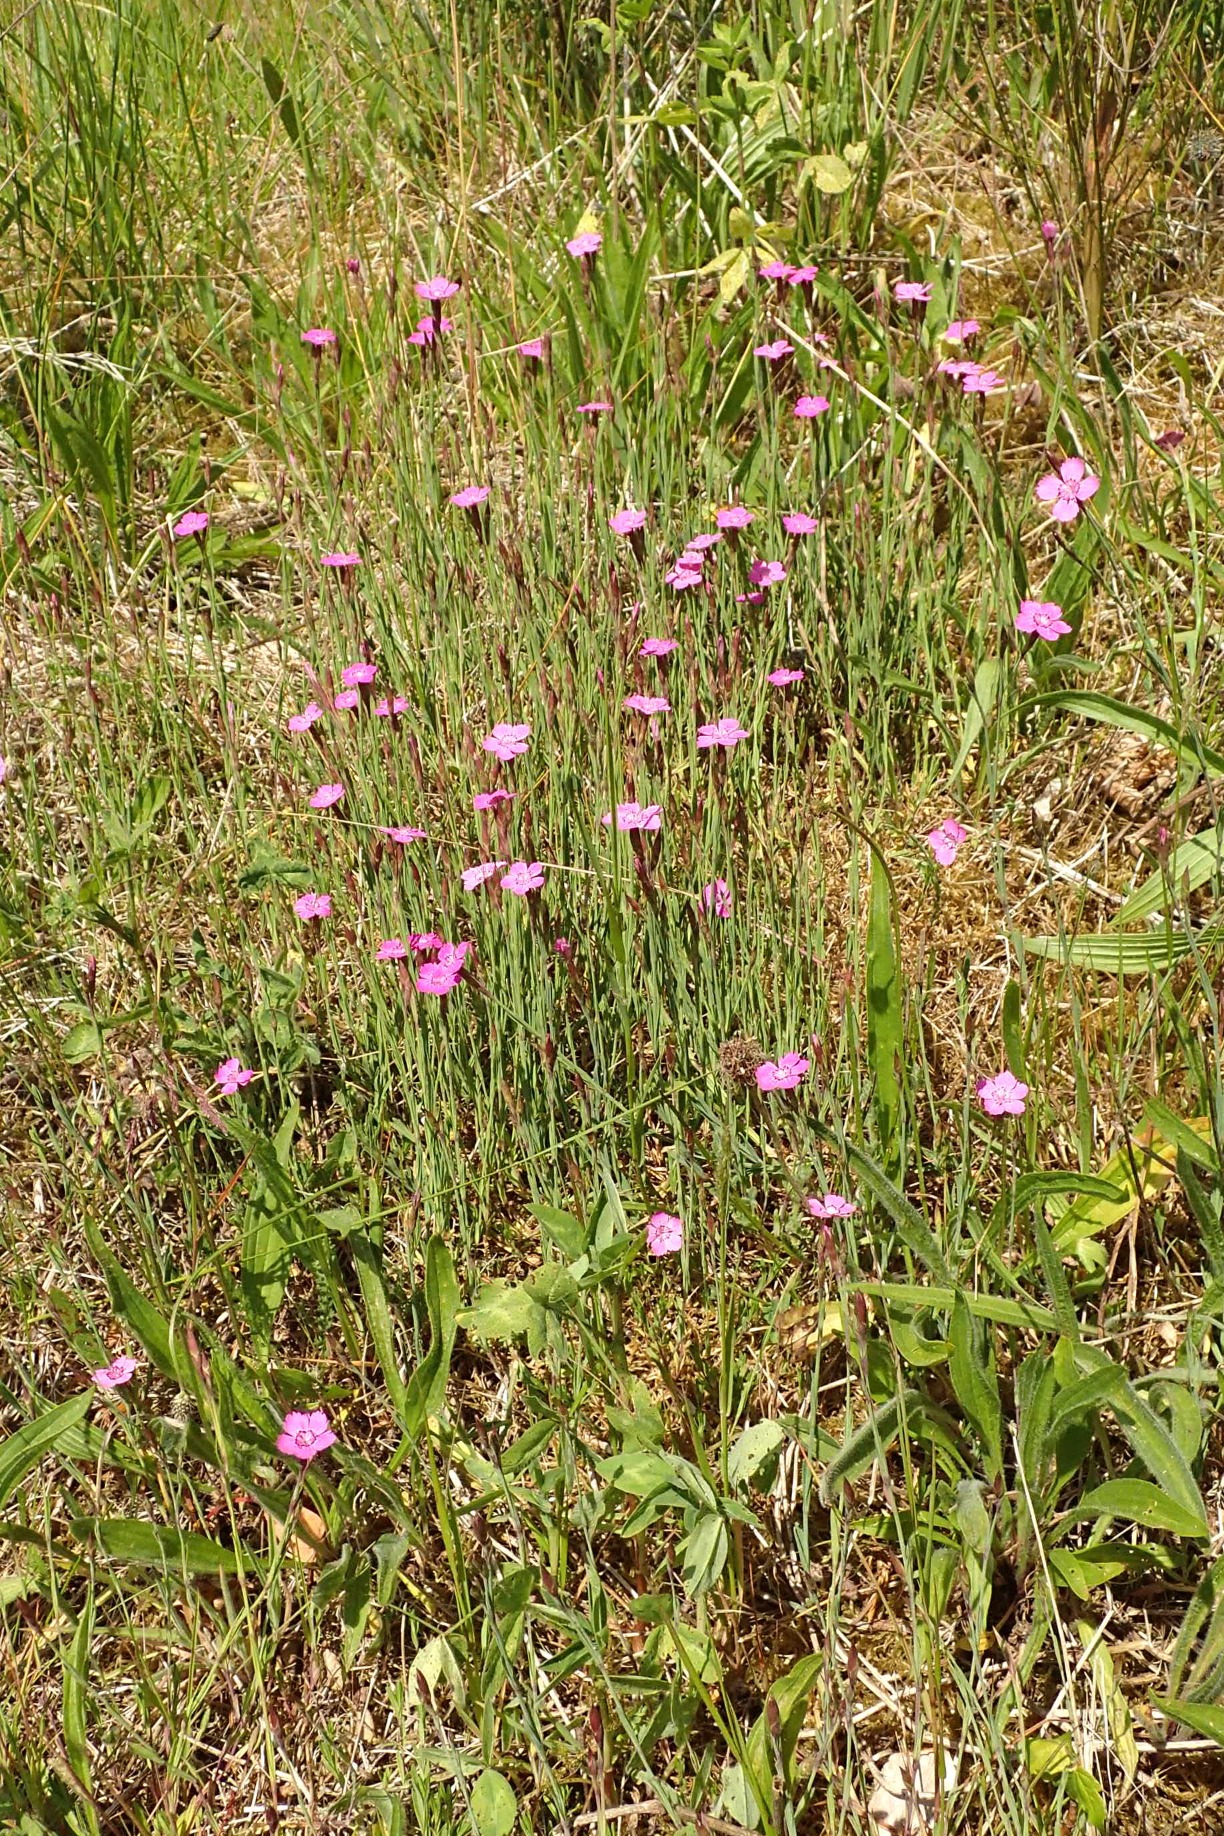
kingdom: Plantae
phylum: Tracheophyta
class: Magnoliopsida
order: Caryophyllales
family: Caryophyllaceae
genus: Dianthus
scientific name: Dianthus deltoides
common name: Bakke-nellike
